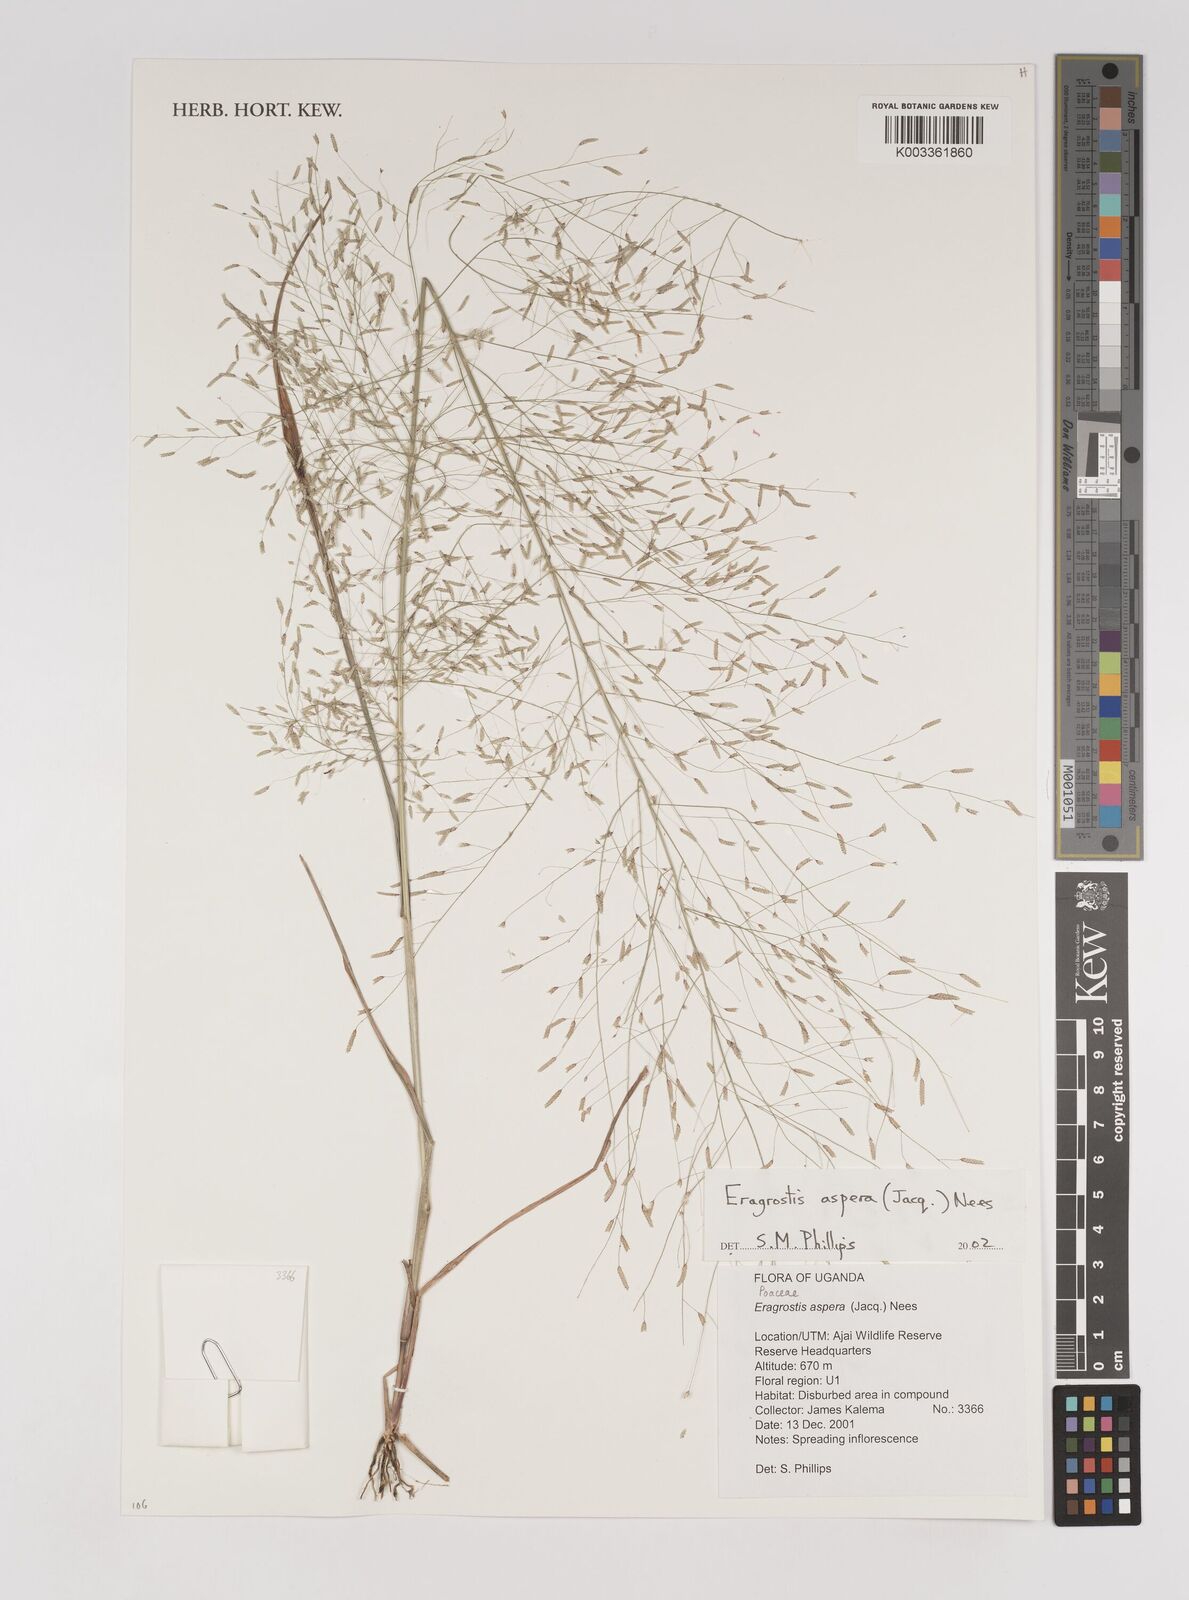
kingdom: Plantae
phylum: Tracheophyta
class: Liliopsida
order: Poales
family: Poaceae
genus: Eragrostis
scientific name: Eragrostis aspera
